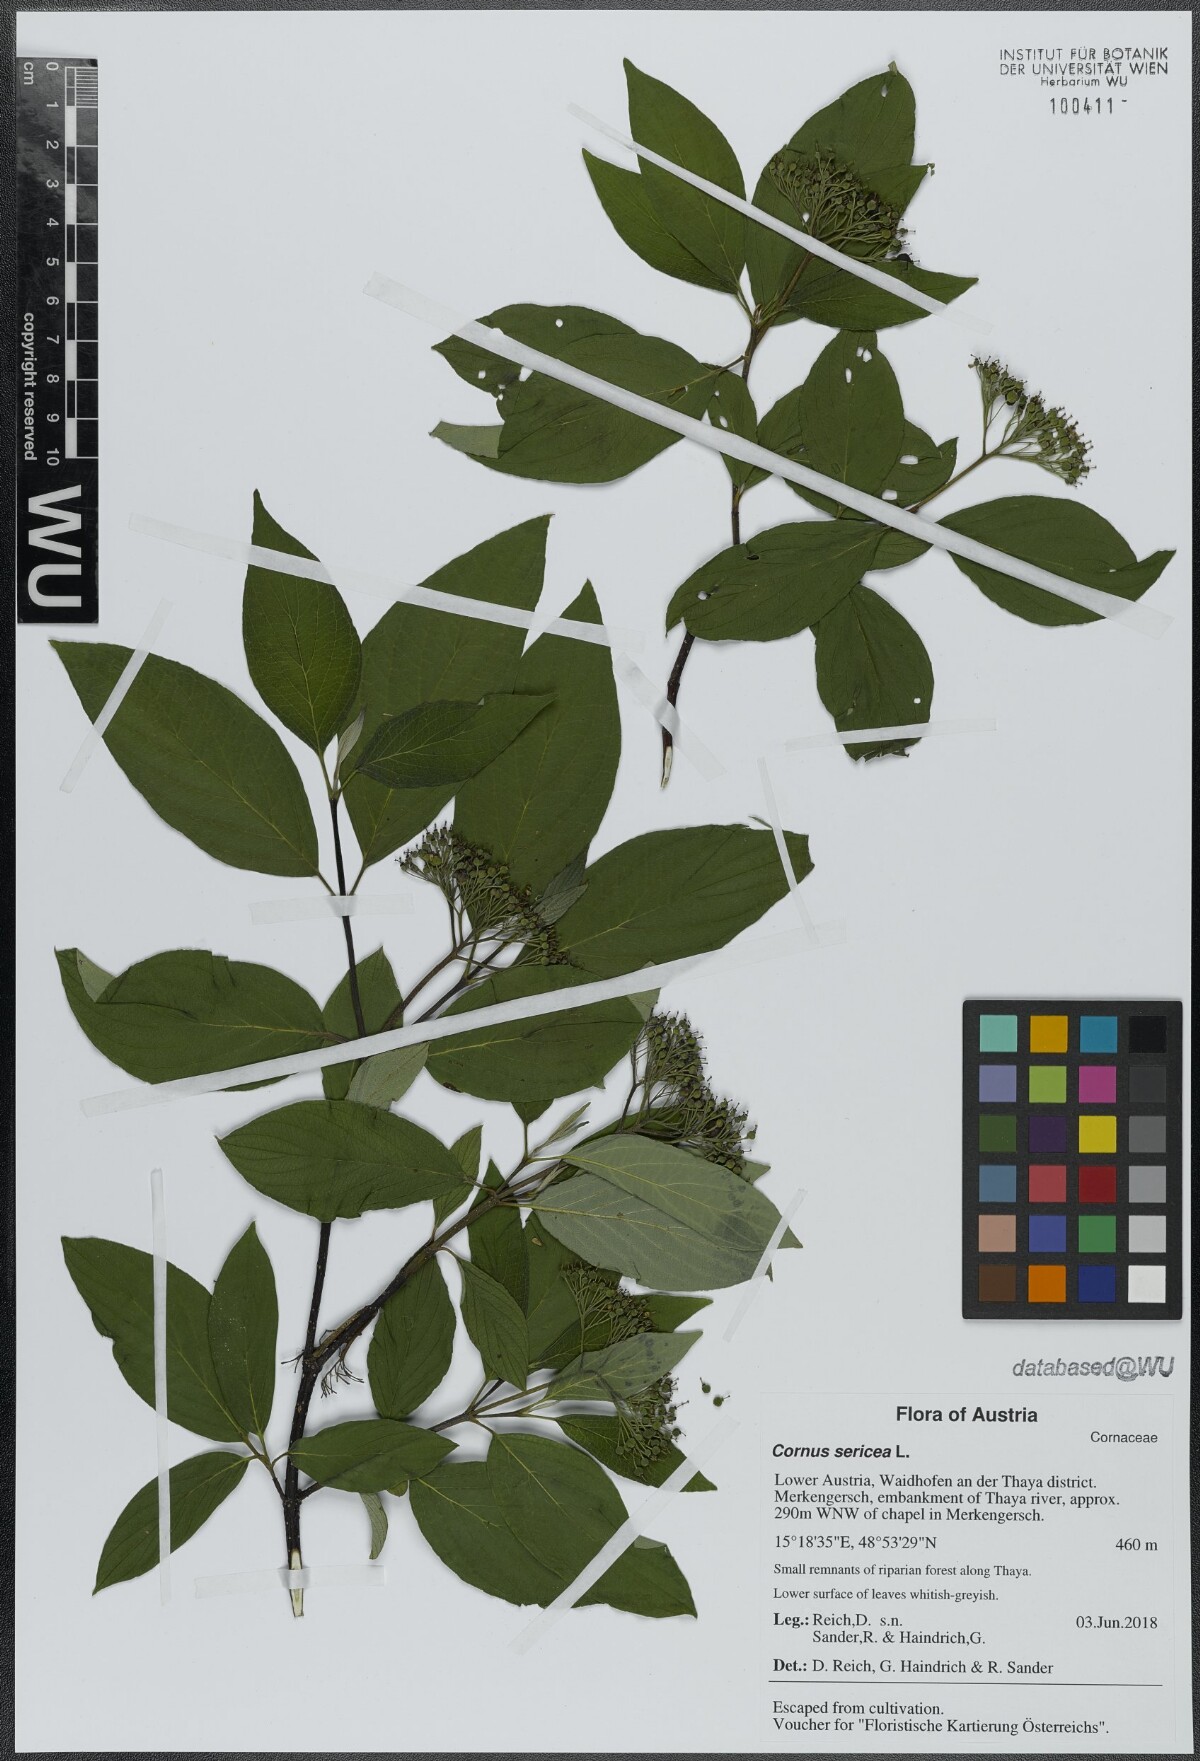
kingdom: Plantae
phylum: Tracheophyta
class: Magnoliopsida
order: Cornales
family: Cornaceae
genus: Cornus
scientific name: Cornus sericea
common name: Red-osier dogwood
